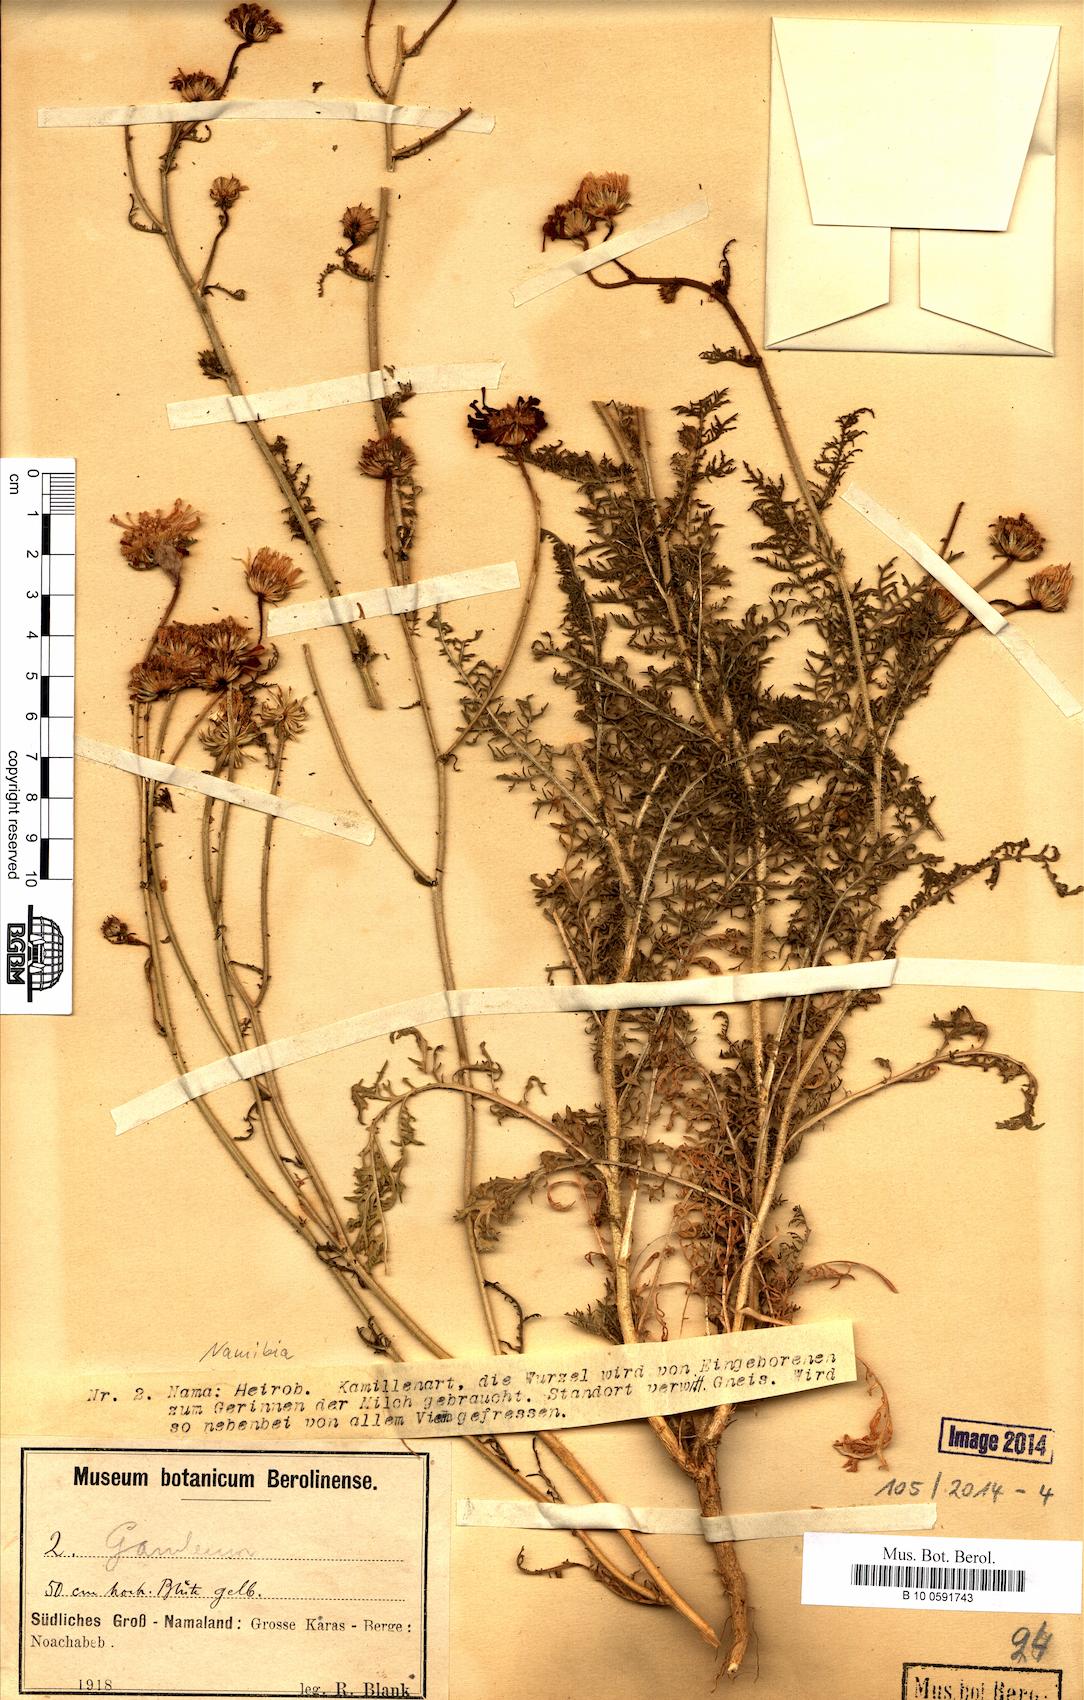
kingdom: Plantae
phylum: Tracheophyta
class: Magnoliopsida
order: Asterales
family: Asteraceae
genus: Garuleum
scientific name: Garuleum
